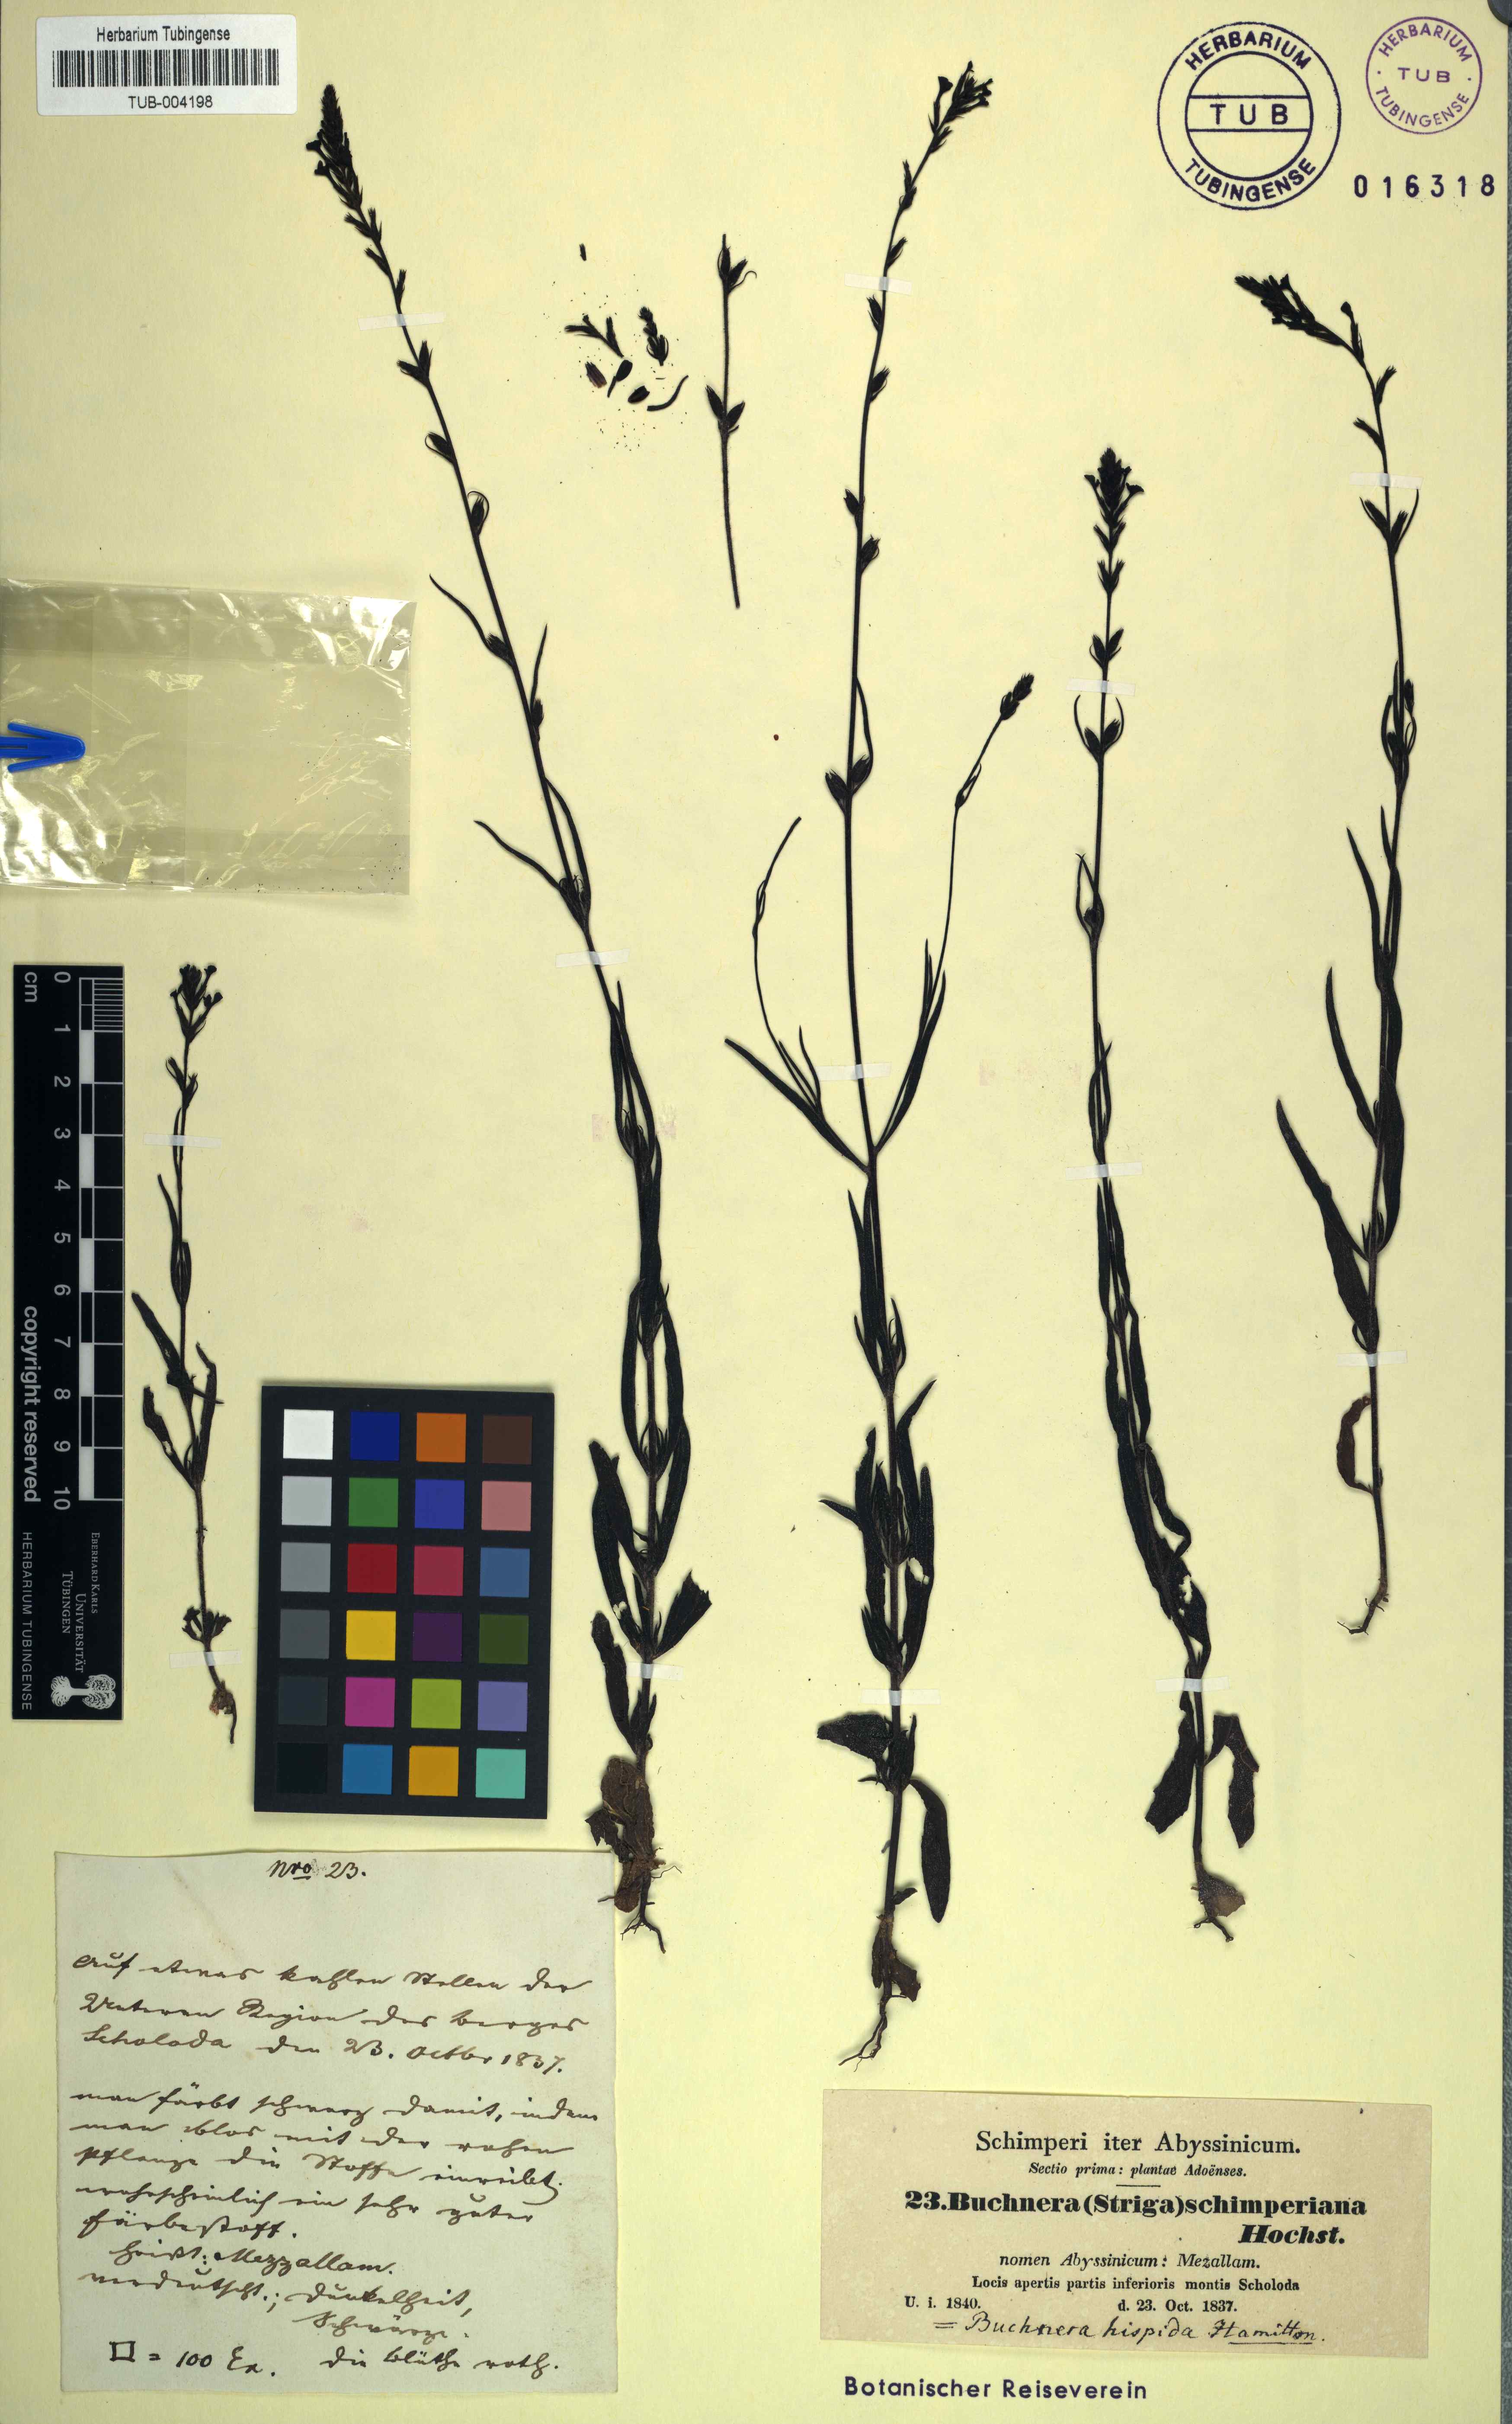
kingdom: Plantae
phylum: Tracheophyta
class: Magnoliopsida
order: Lamiales
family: Orobanchaceae
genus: Buchnera
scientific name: Buchnera hispida
